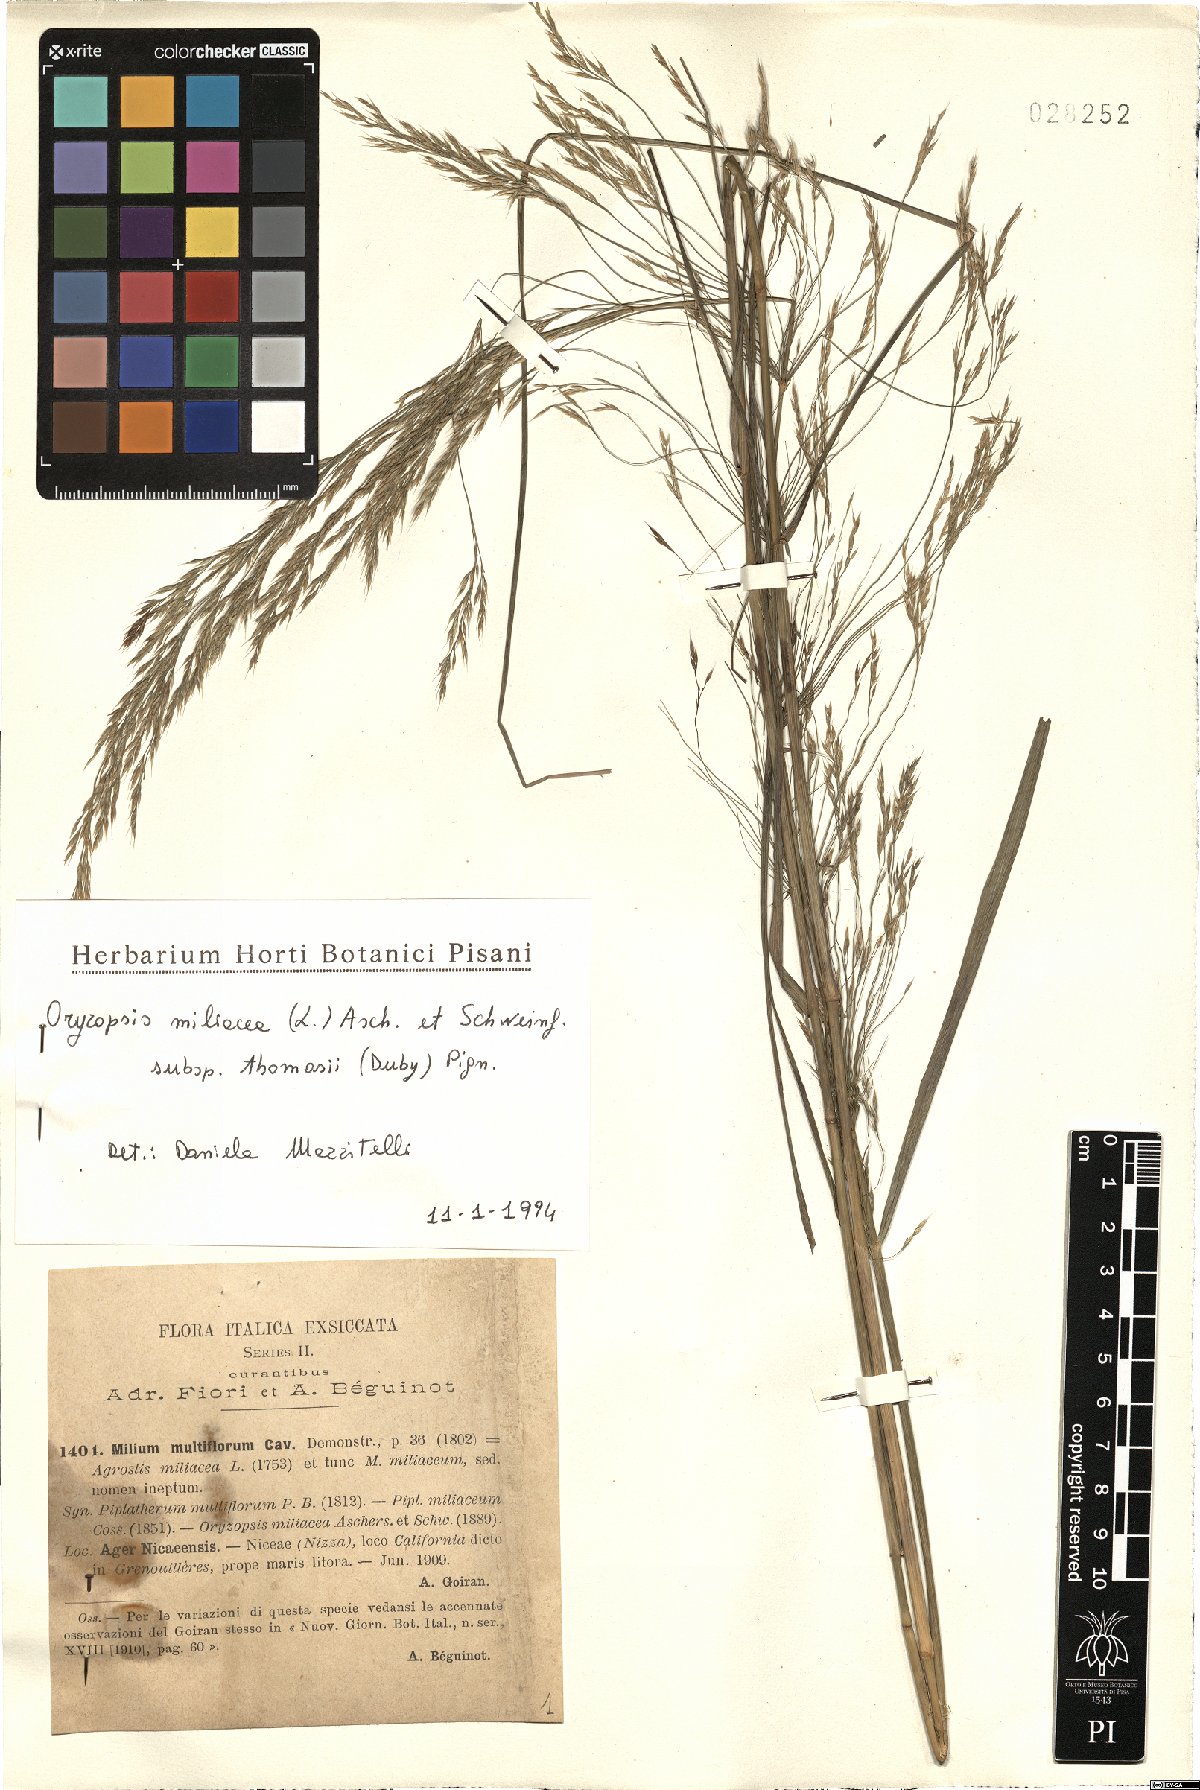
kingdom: Plantae
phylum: Tracheophyta
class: Liliopsida
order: Poales
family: Poaceae
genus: Oloptum
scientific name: Oloptum thomasii
